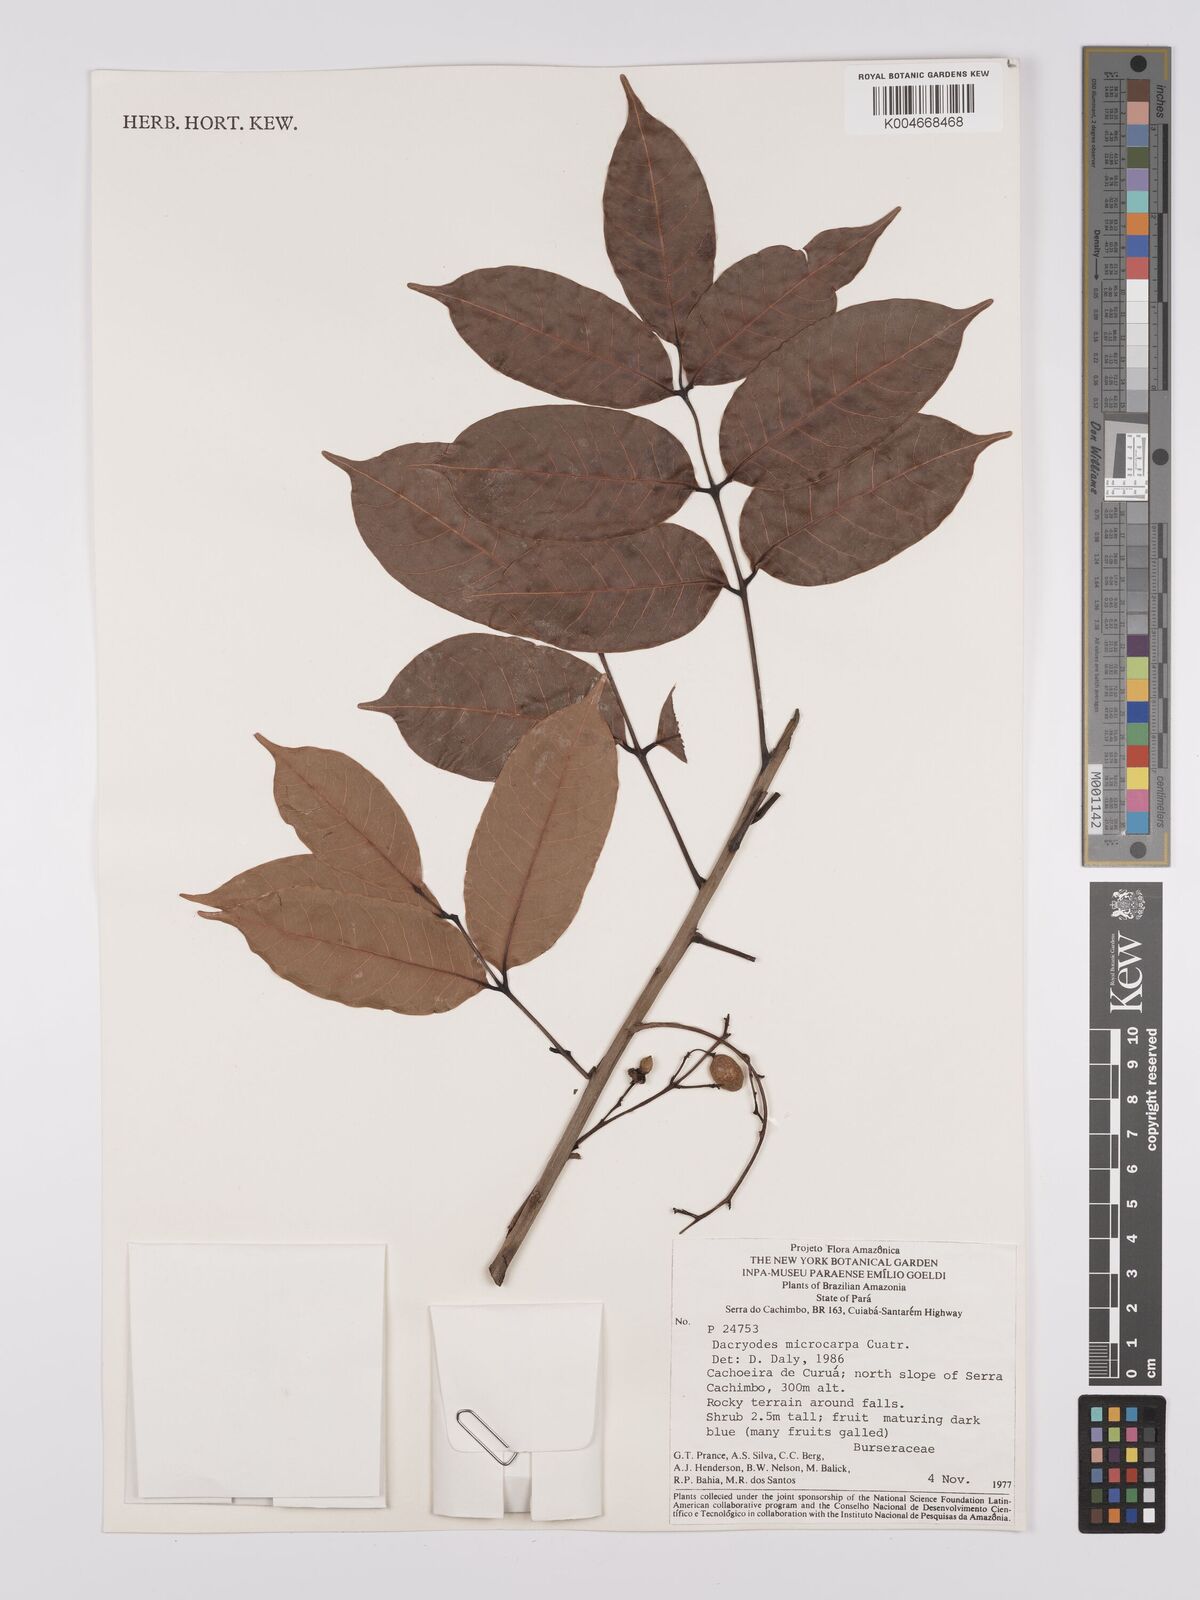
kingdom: Plantae
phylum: Tracheophyta
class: Magnoliopsida
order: Sapindales
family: Burseraceae
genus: Dacryodes
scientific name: Dacryodes microcarpa
